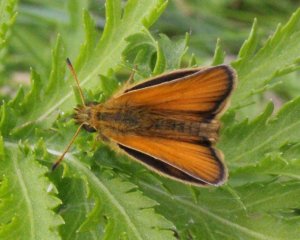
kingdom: Animalia
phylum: Arthropoda
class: Insecta
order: Lepidoptera
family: Hesperiidae
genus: Thymelicus
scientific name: Thymelicus lineola
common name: European Skipper
